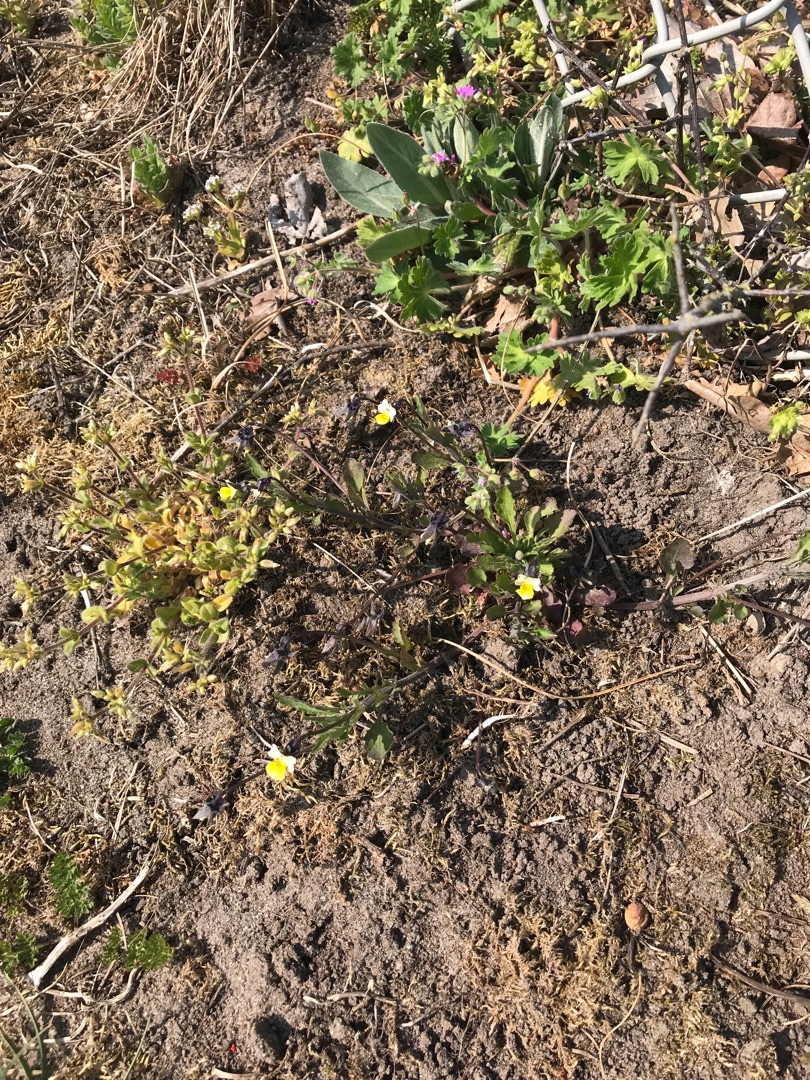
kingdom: Plantae
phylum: Tracheophyta
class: Magnoliopsida
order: Malpighiales
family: Violaceae
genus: Viola
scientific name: Viola arvensis
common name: Ager-stedmoderblomst
